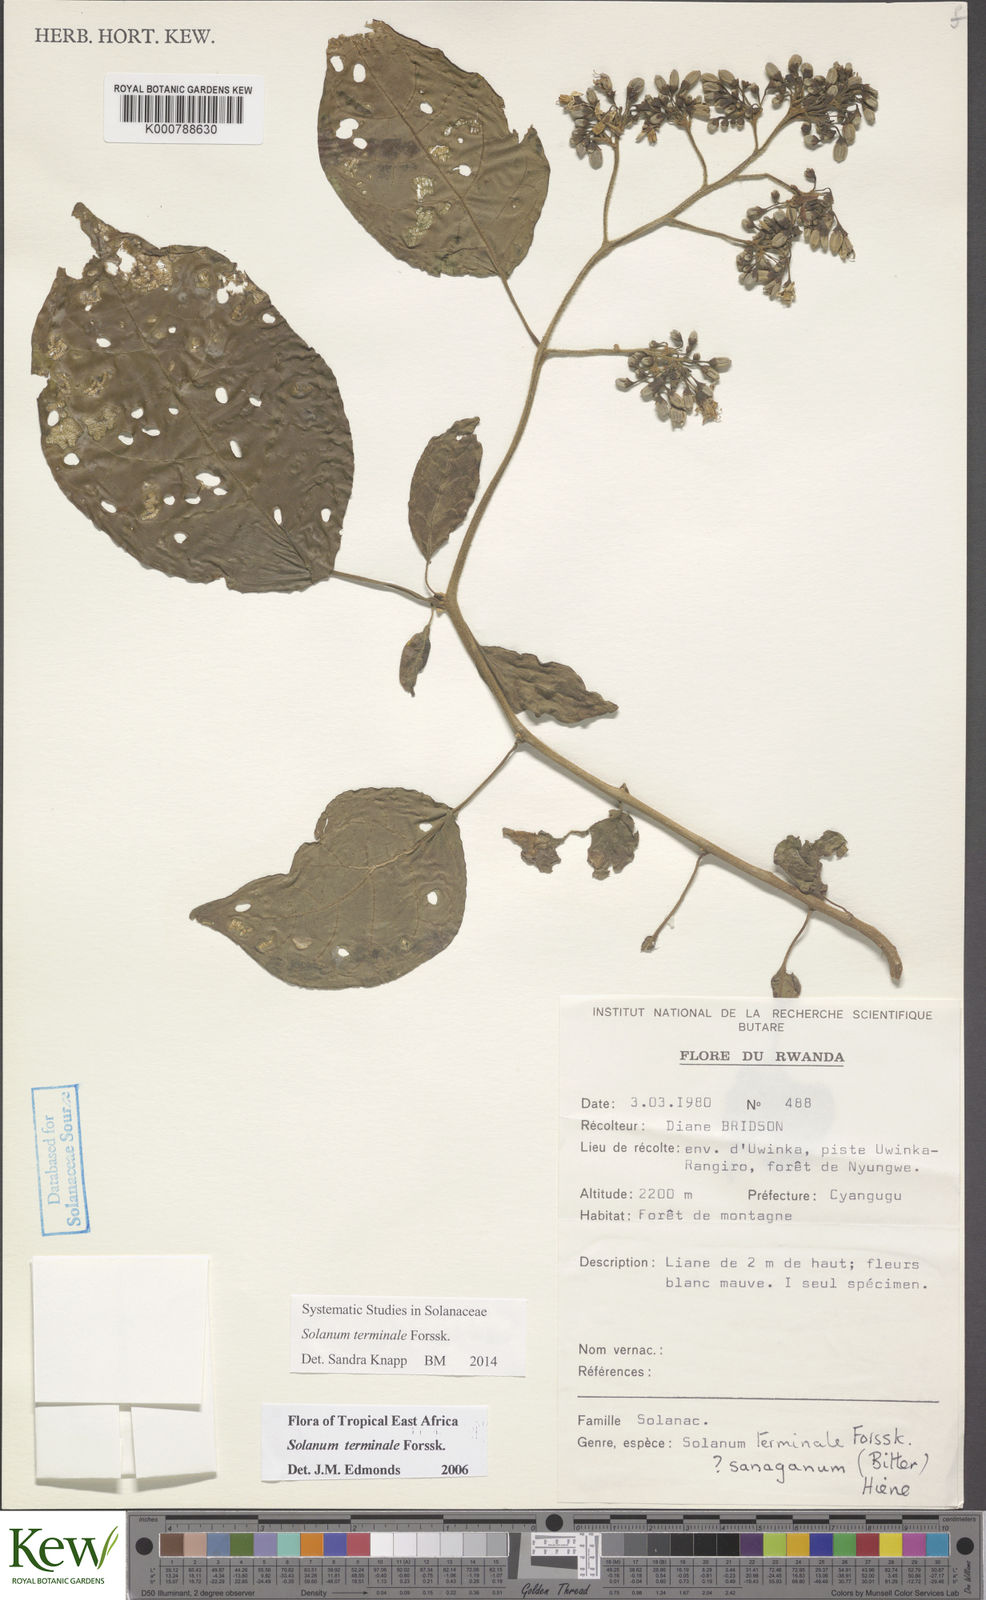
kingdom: Plantae
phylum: Tracheophyta
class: Magnoliopsida
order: Solanales
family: Solanaceae
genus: Solanum
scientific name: Solanum terminale
